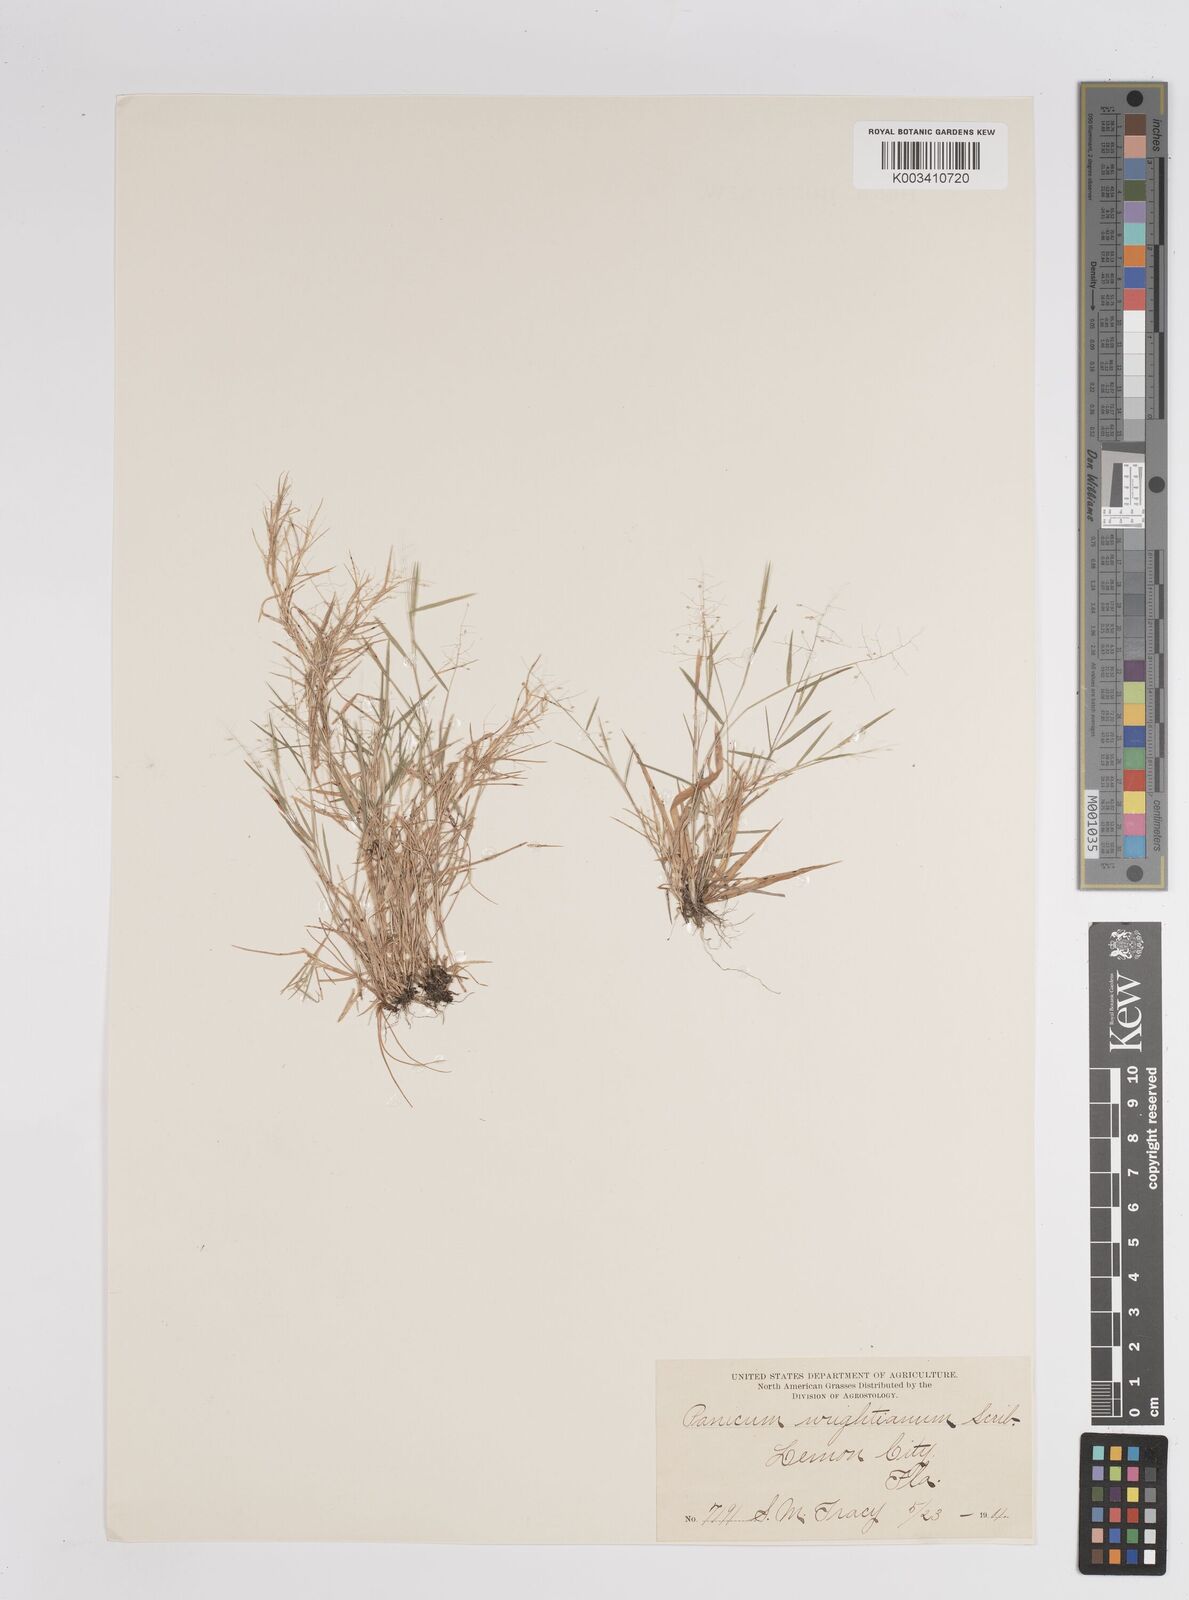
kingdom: Plantae
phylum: Tracheophyta
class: Liliopsida
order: Poales
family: Poaceae
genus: Dichanthelium
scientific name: Dichanthelium wrightianum
